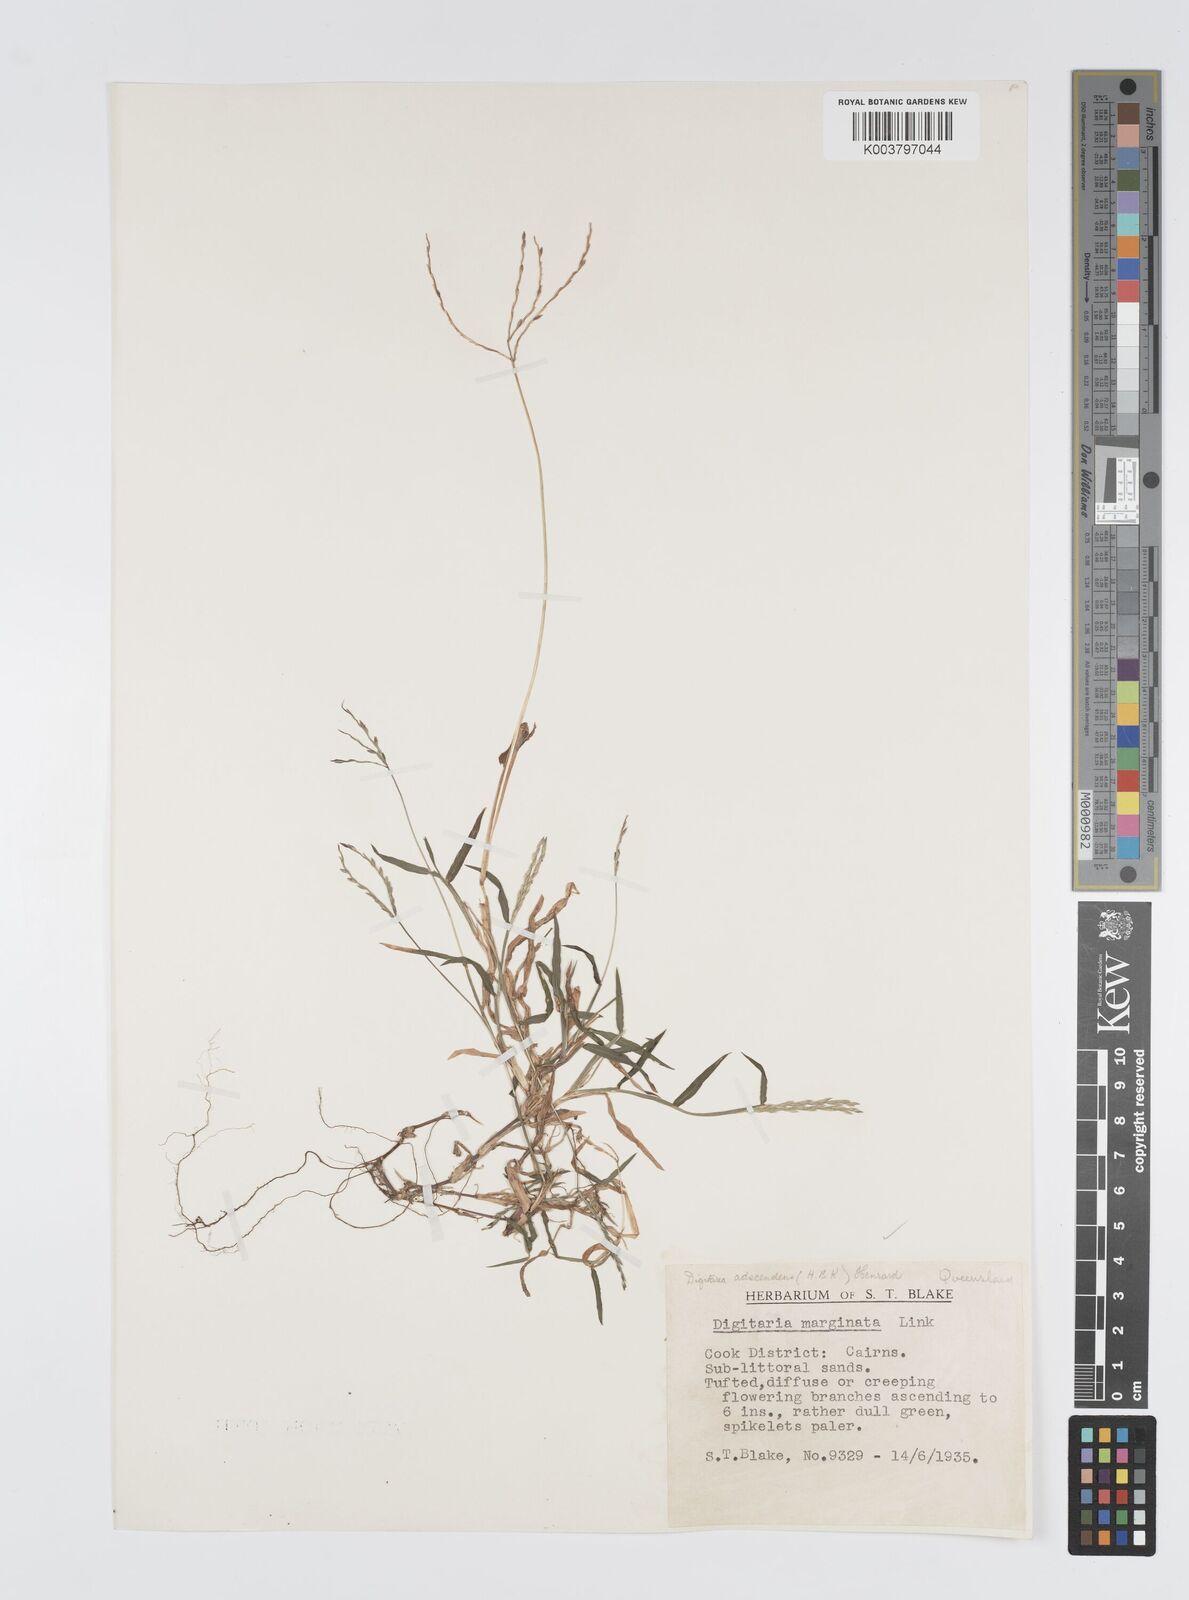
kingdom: Plantae
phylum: Tracheophyta
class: Liliopsida
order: Poales
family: Poaceae
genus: Digitaria
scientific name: Digitaria ciliaris
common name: Tropical finger-grass
